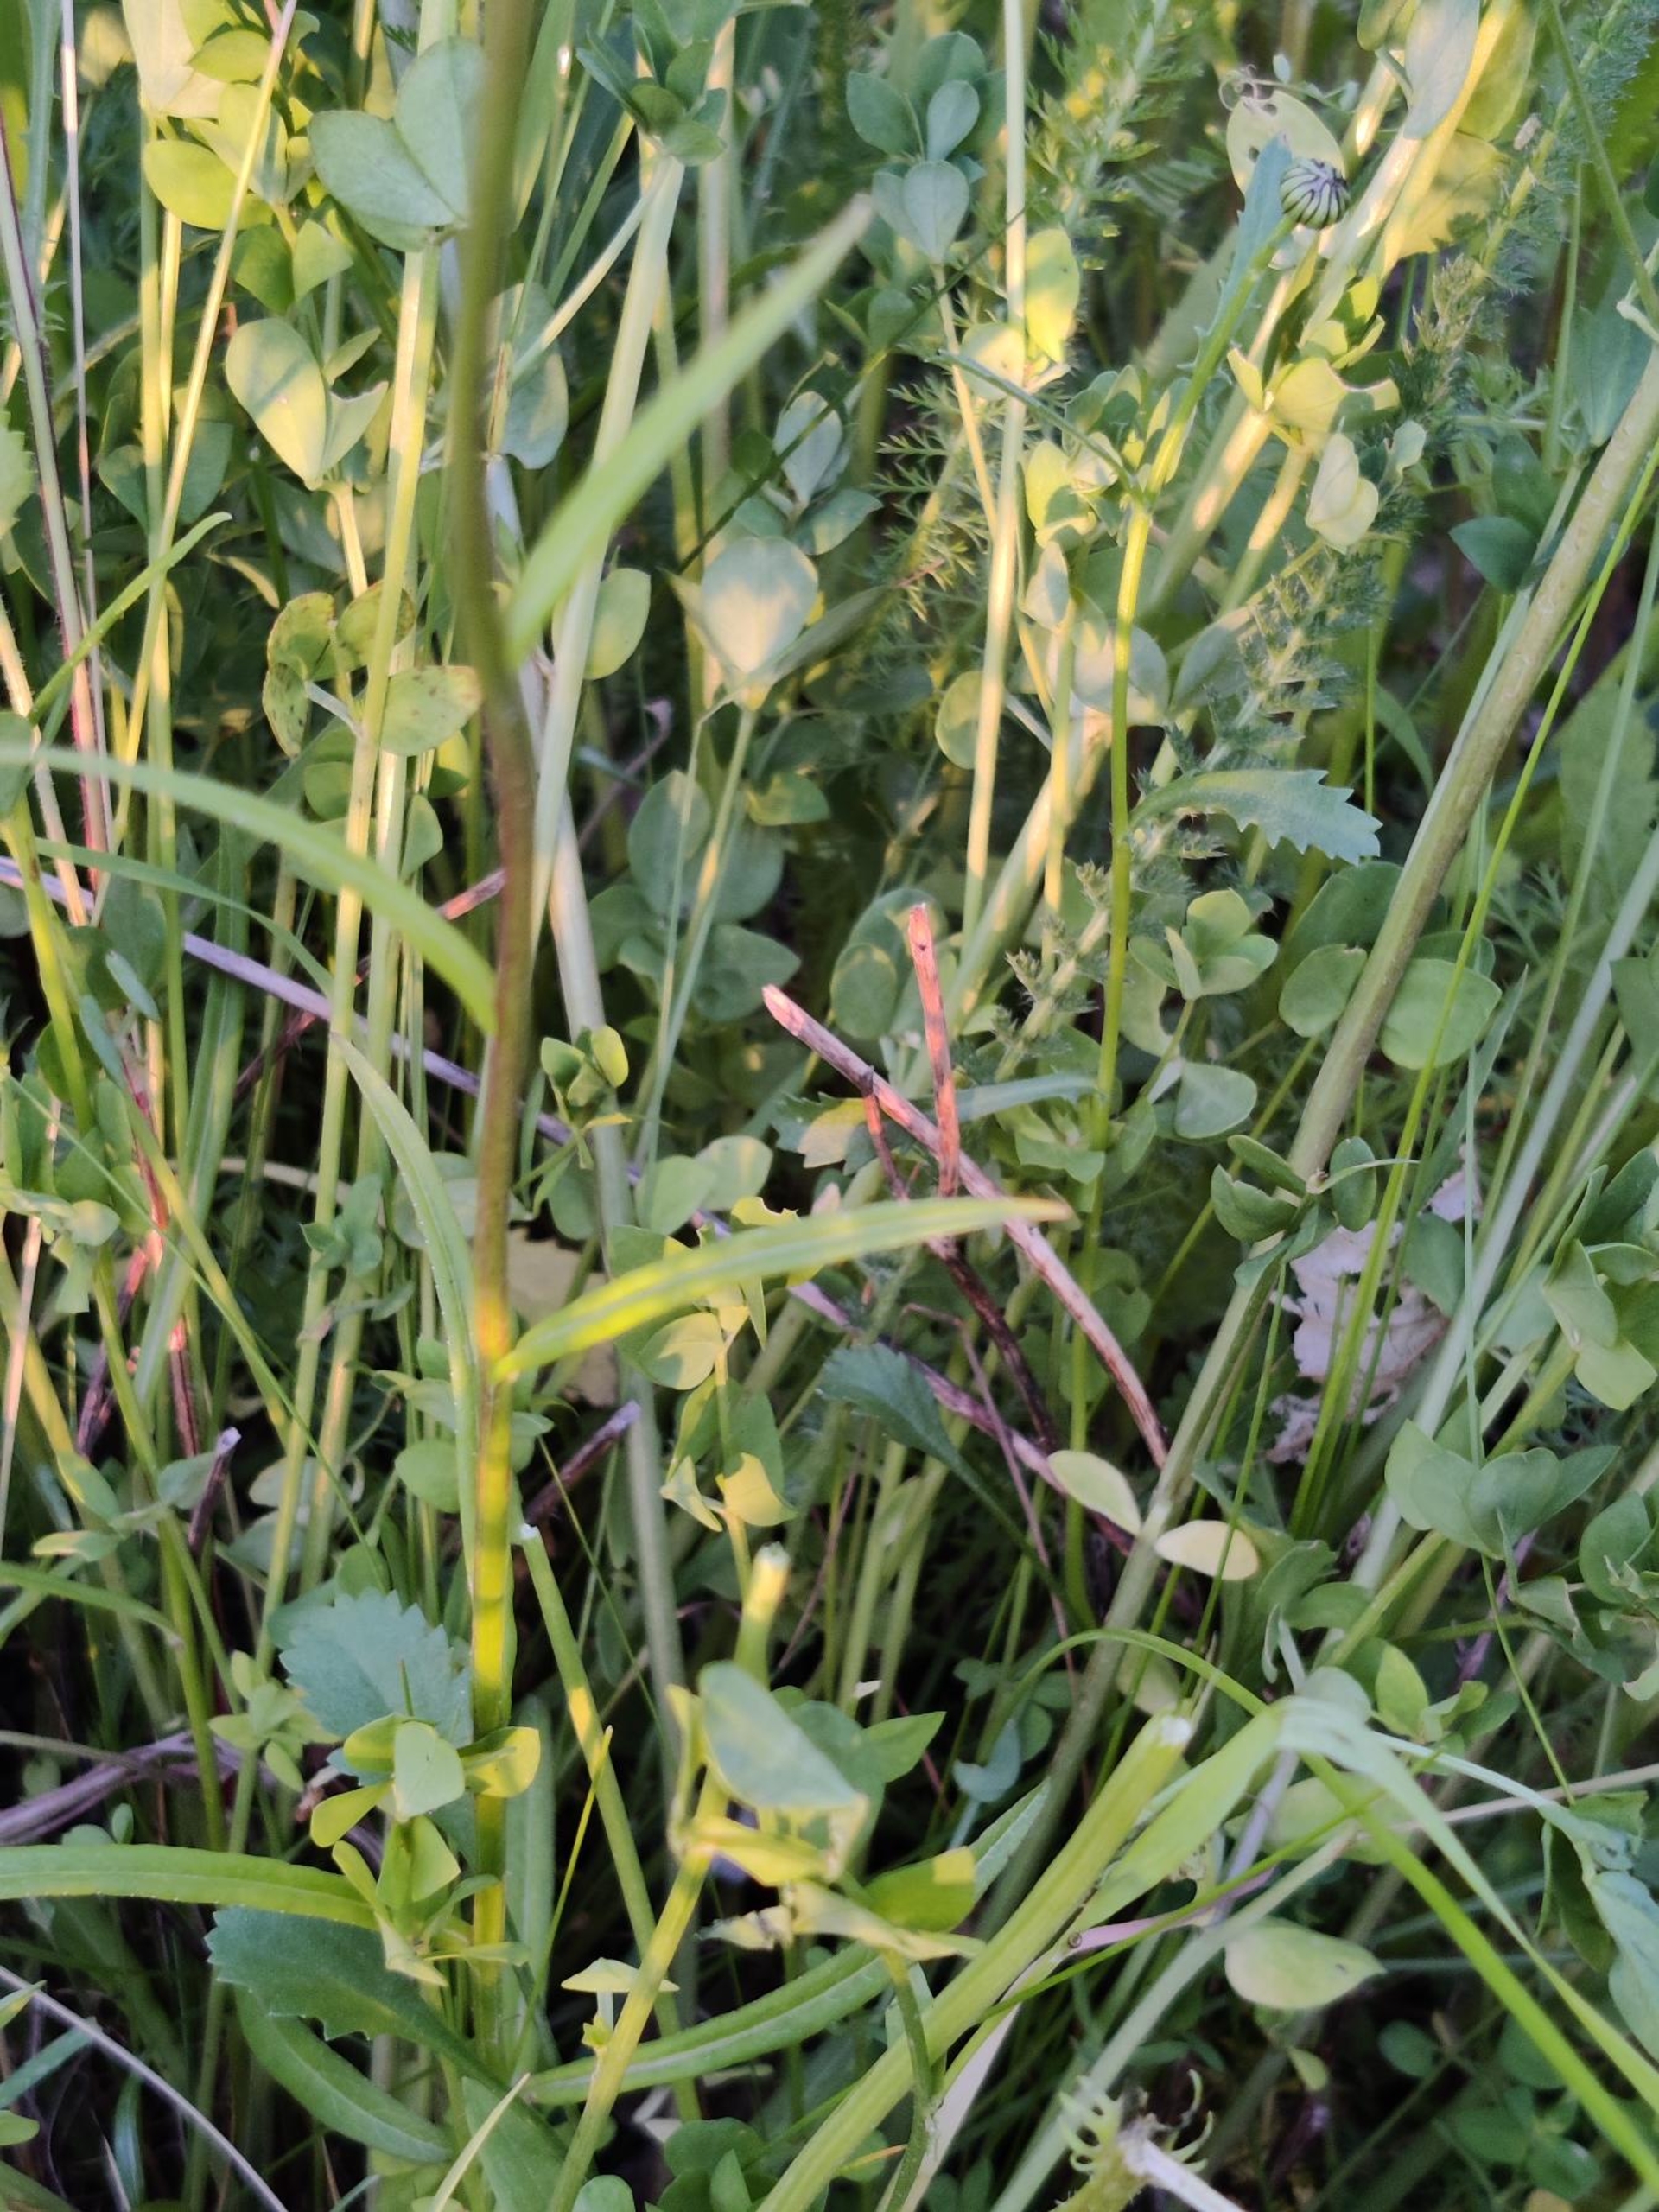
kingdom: Plantae
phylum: Tracheophyta
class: Magnoliopsida
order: Asterales
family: Campanulaceae
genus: Campanula
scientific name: Campanula persicifolia
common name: Smalbladet klokke
